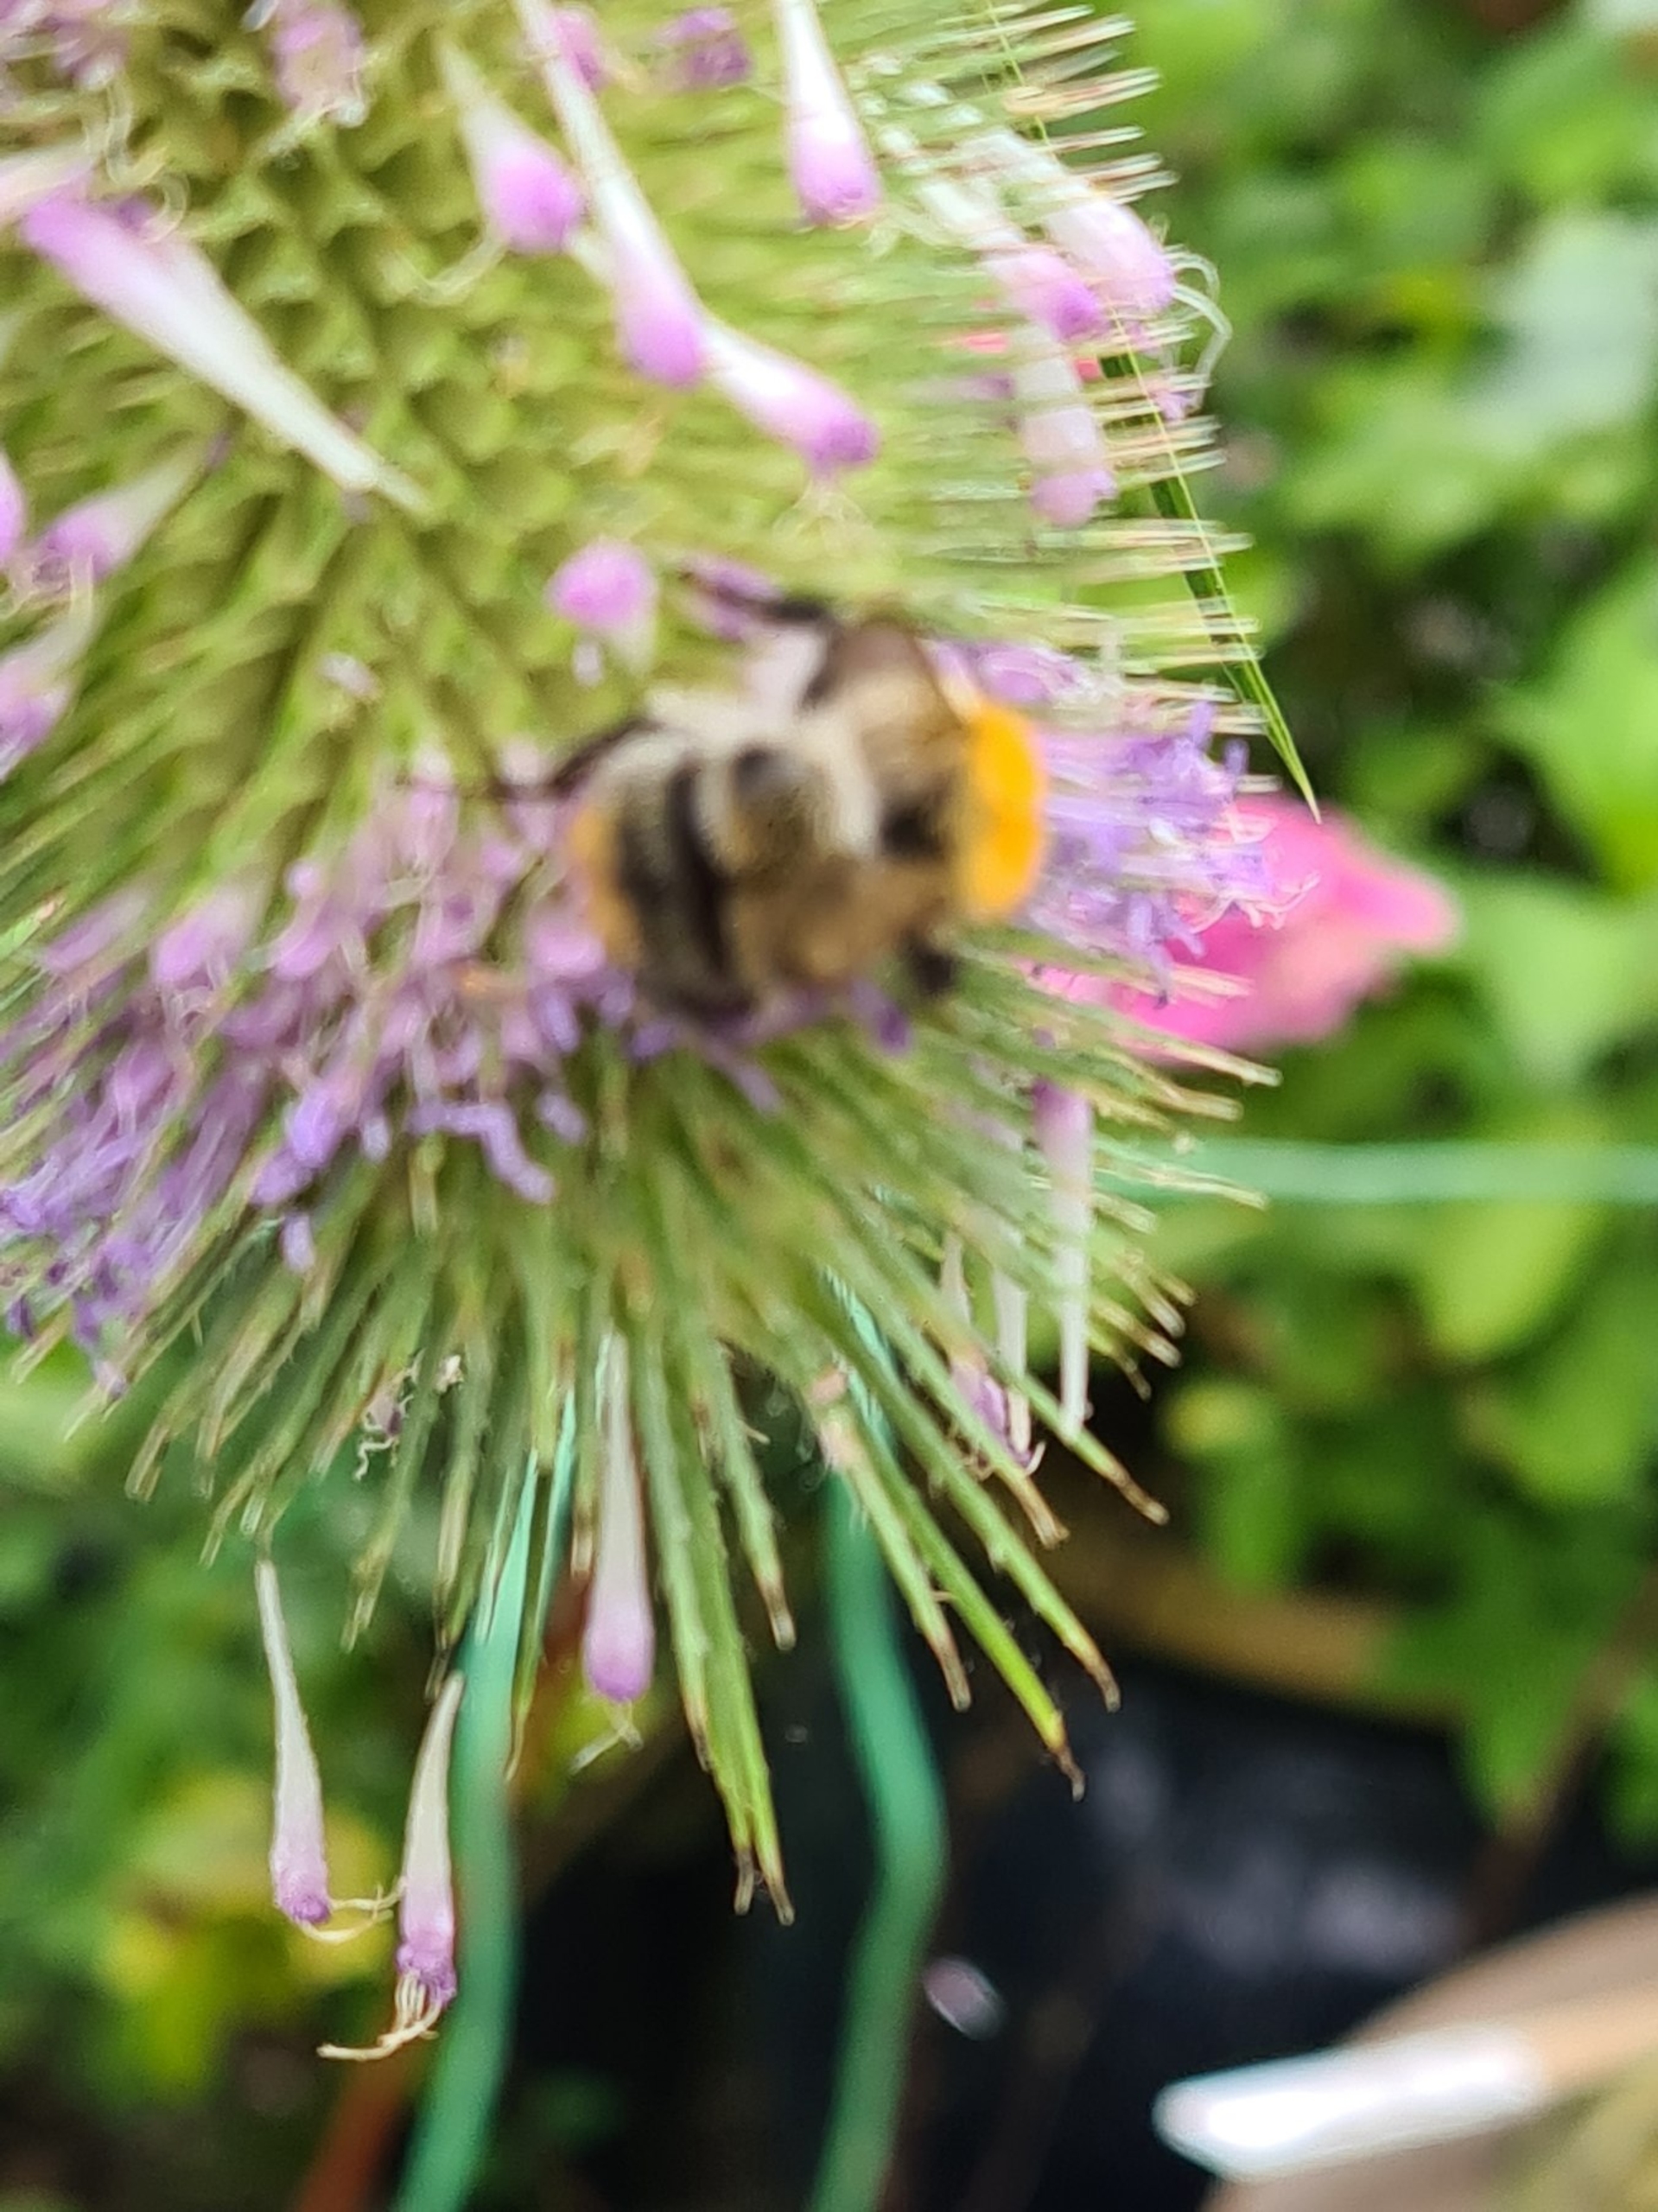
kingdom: Animalia
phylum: Arthropoda
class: Insecta
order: Hymenoptera
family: Apidae
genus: Bombus
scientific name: Bombus pascuorum
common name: Agerhumle
